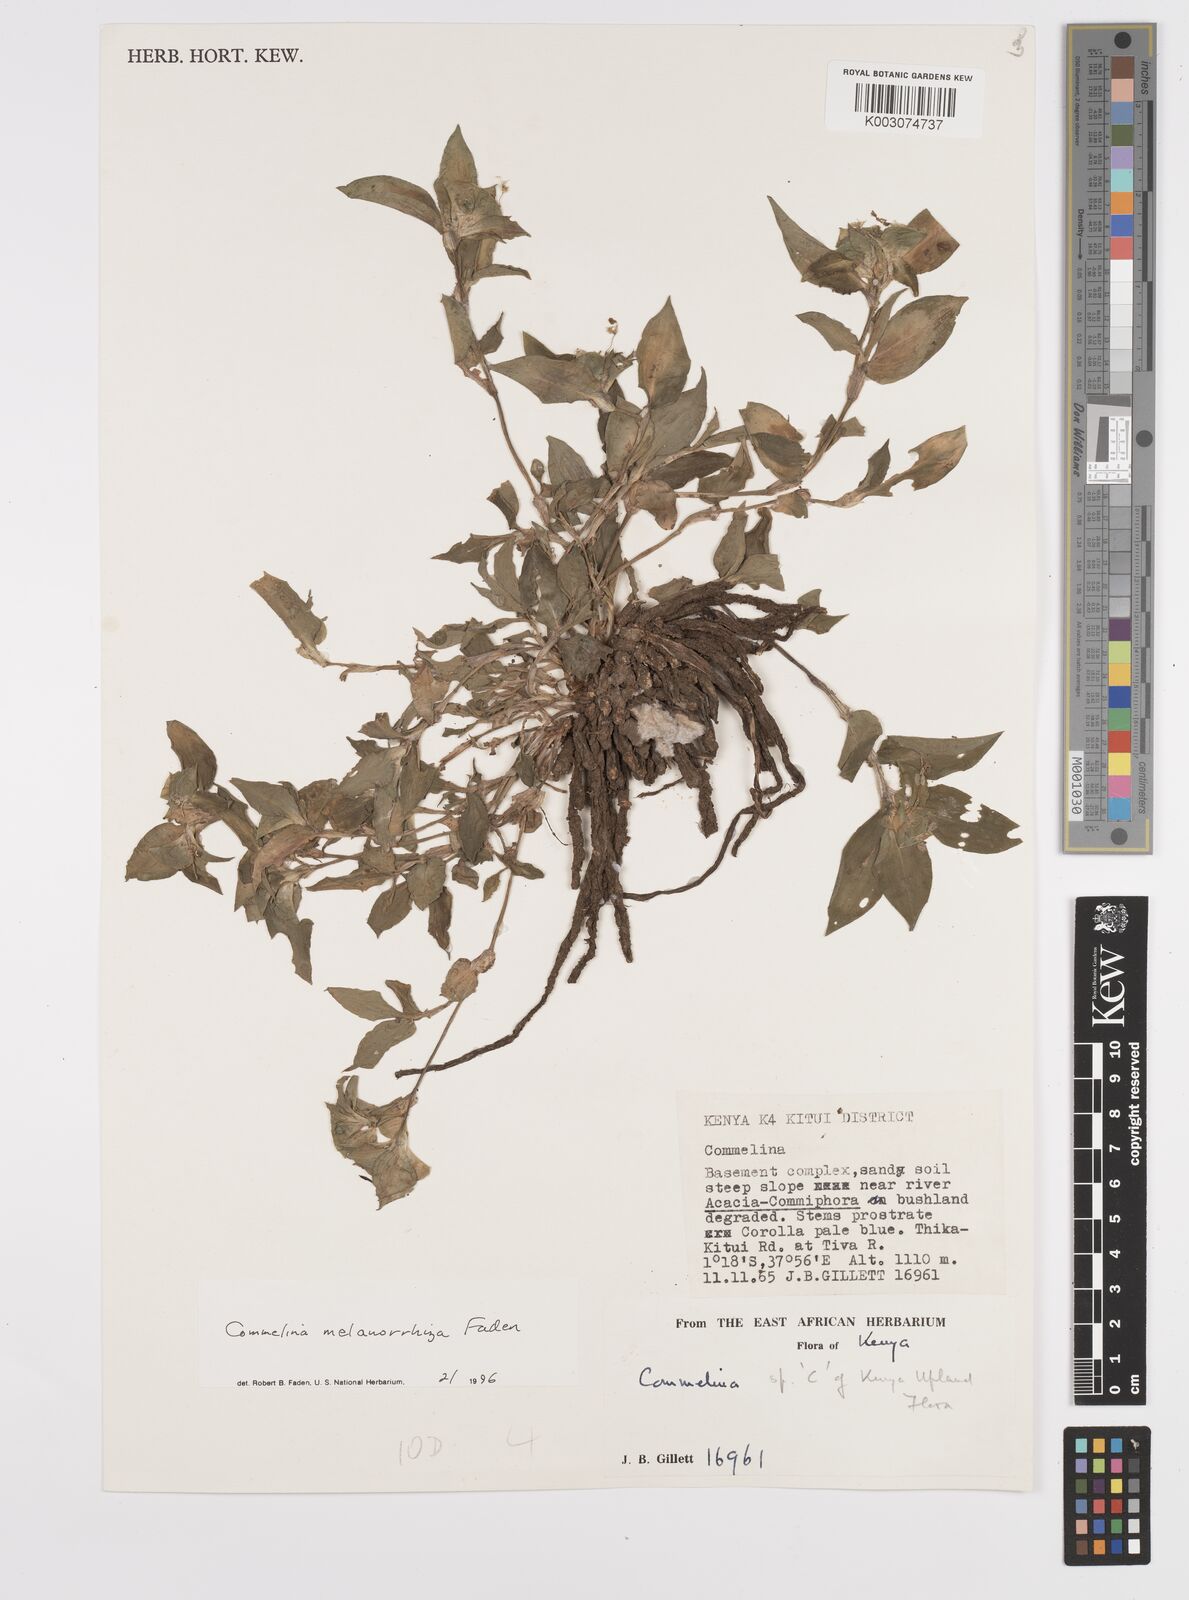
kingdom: Plantae
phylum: Tracheophyta
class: Liliopsida
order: Commelinales
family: Commelinaceae
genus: Commelina
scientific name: Commelina melanorrhiza
